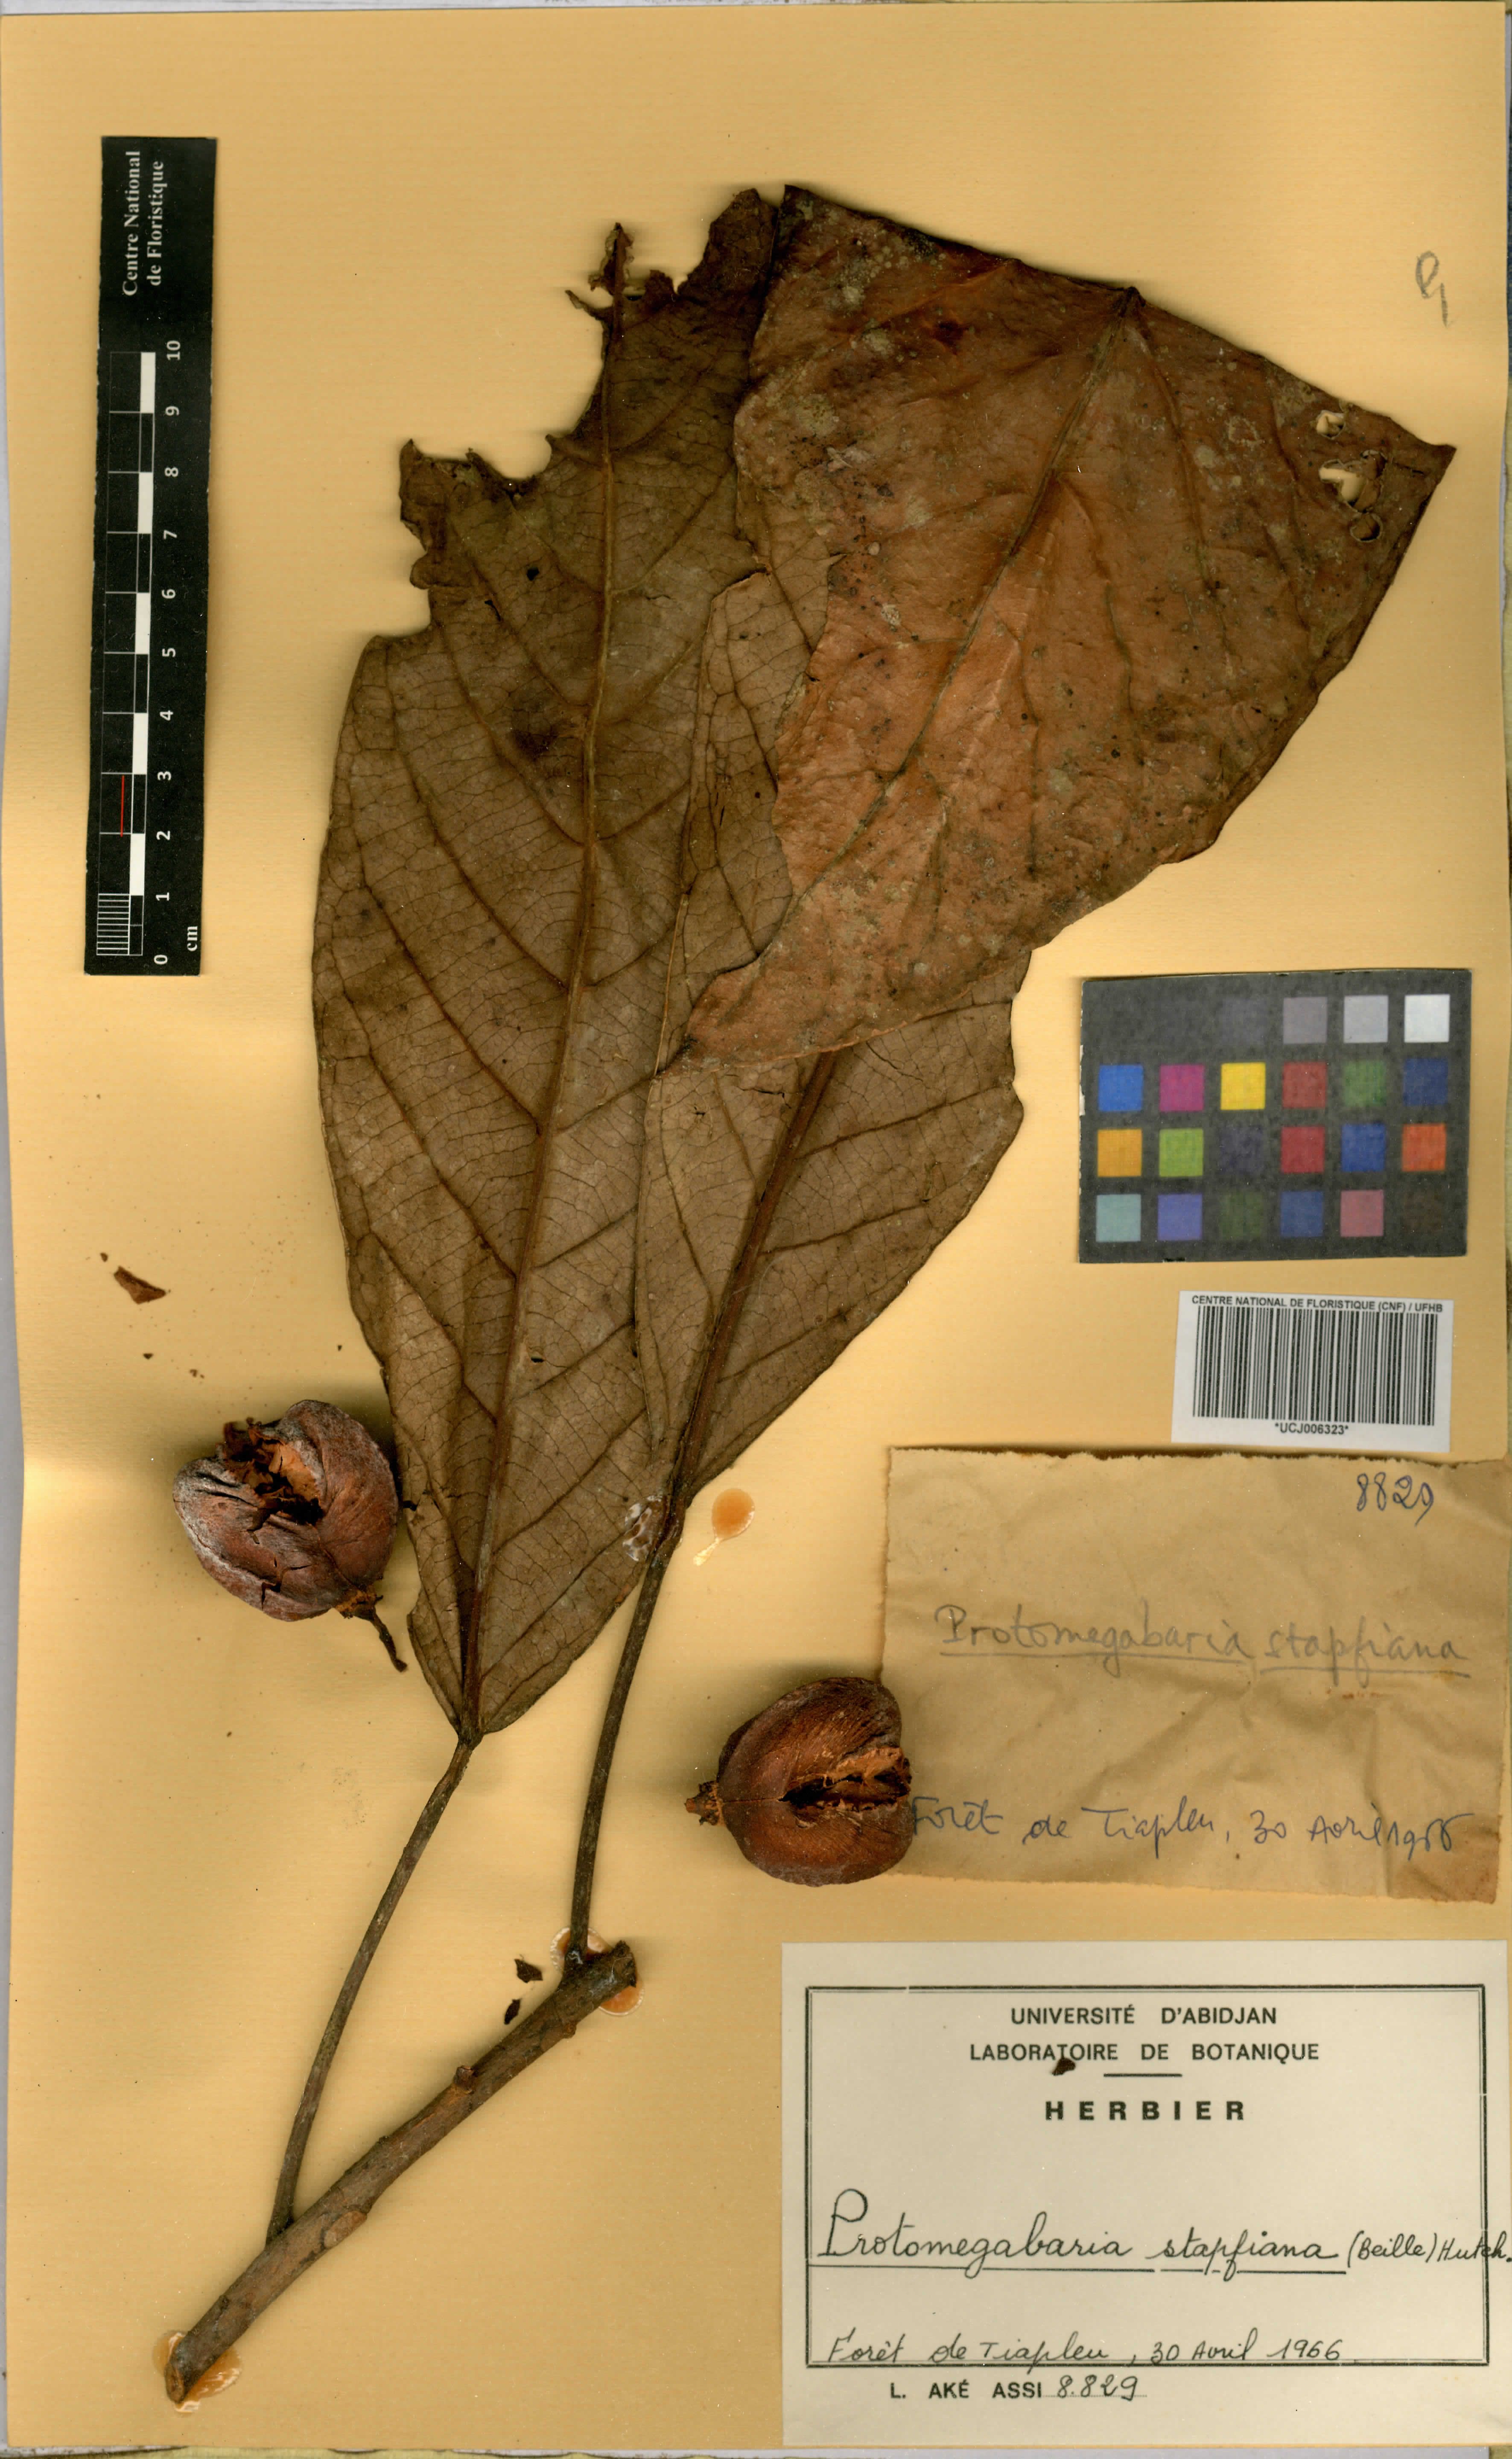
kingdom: Plantae
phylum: Tracheophyta
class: Magnoliopsida
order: Malpighiales
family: Phyllanthaceae
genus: Protomegabaria
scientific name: Protomegabaria stapfiana
